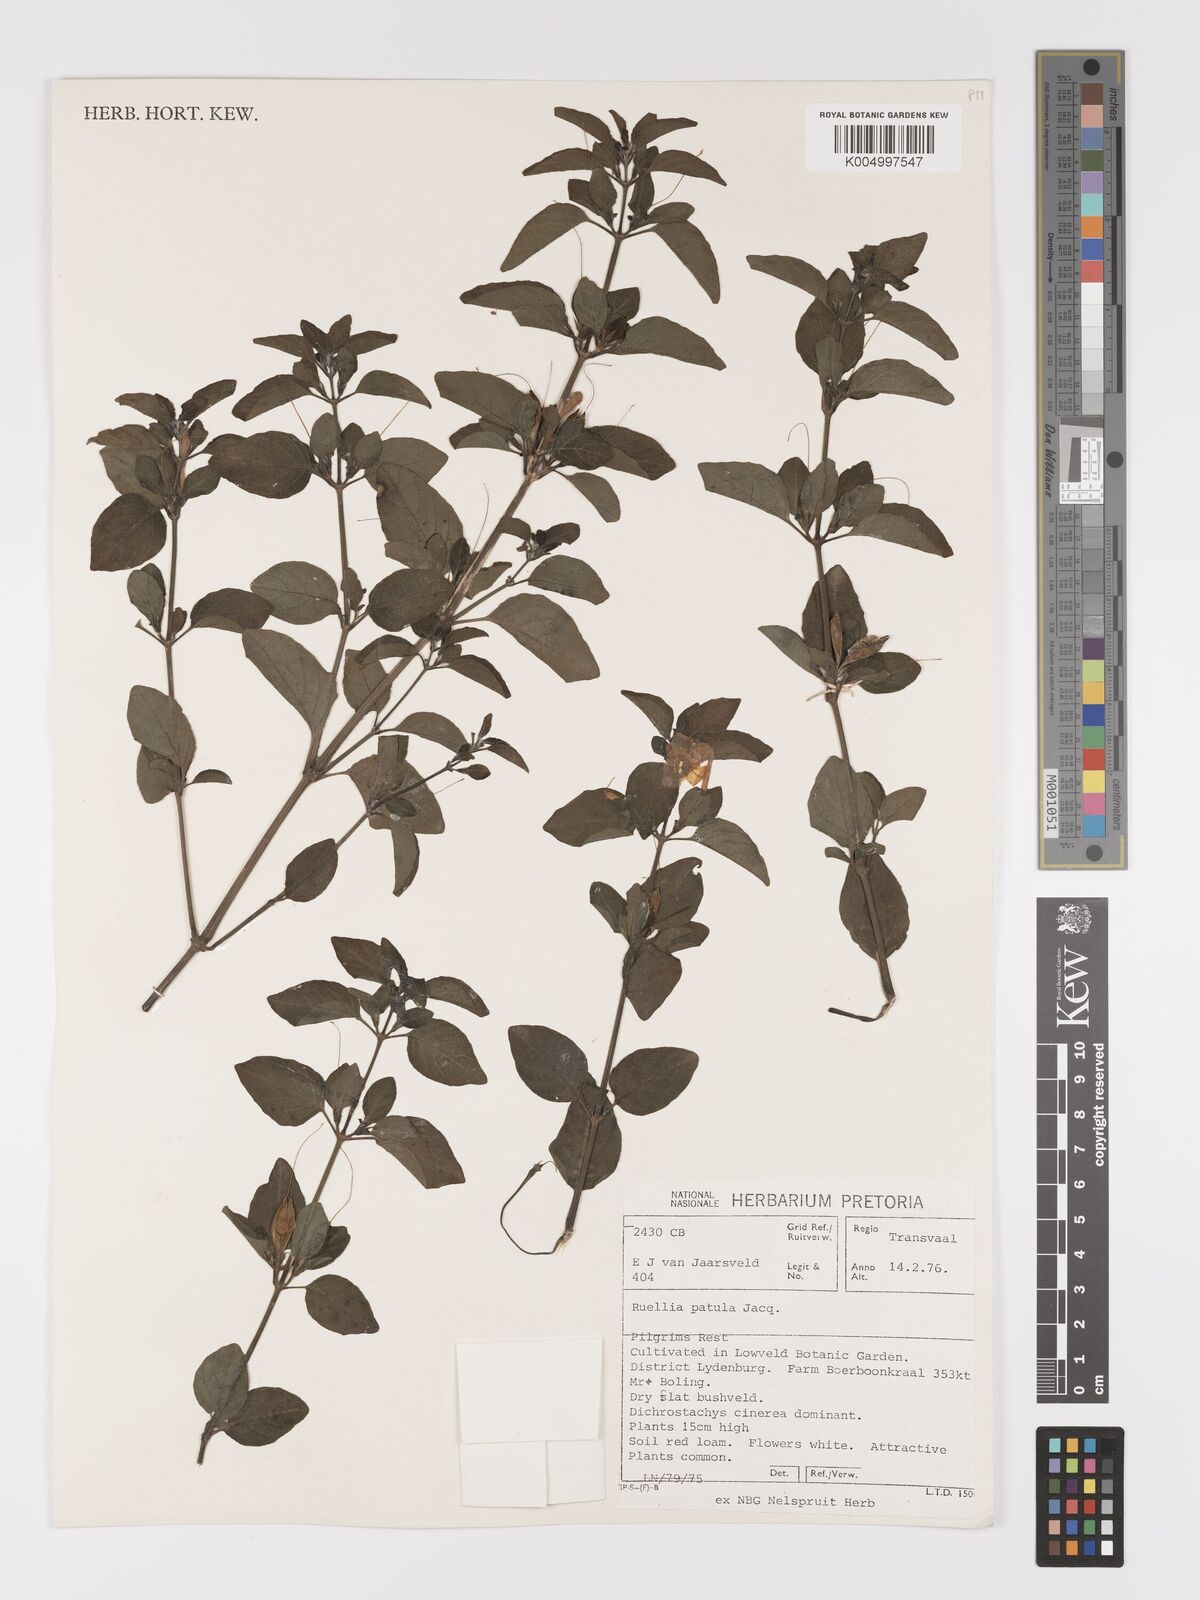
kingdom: Plantae
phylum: Tracheophyta
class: Magnoliopsida
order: Lamiales
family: Acanthaceae
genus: Ruellia
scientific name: Ruellia patula
